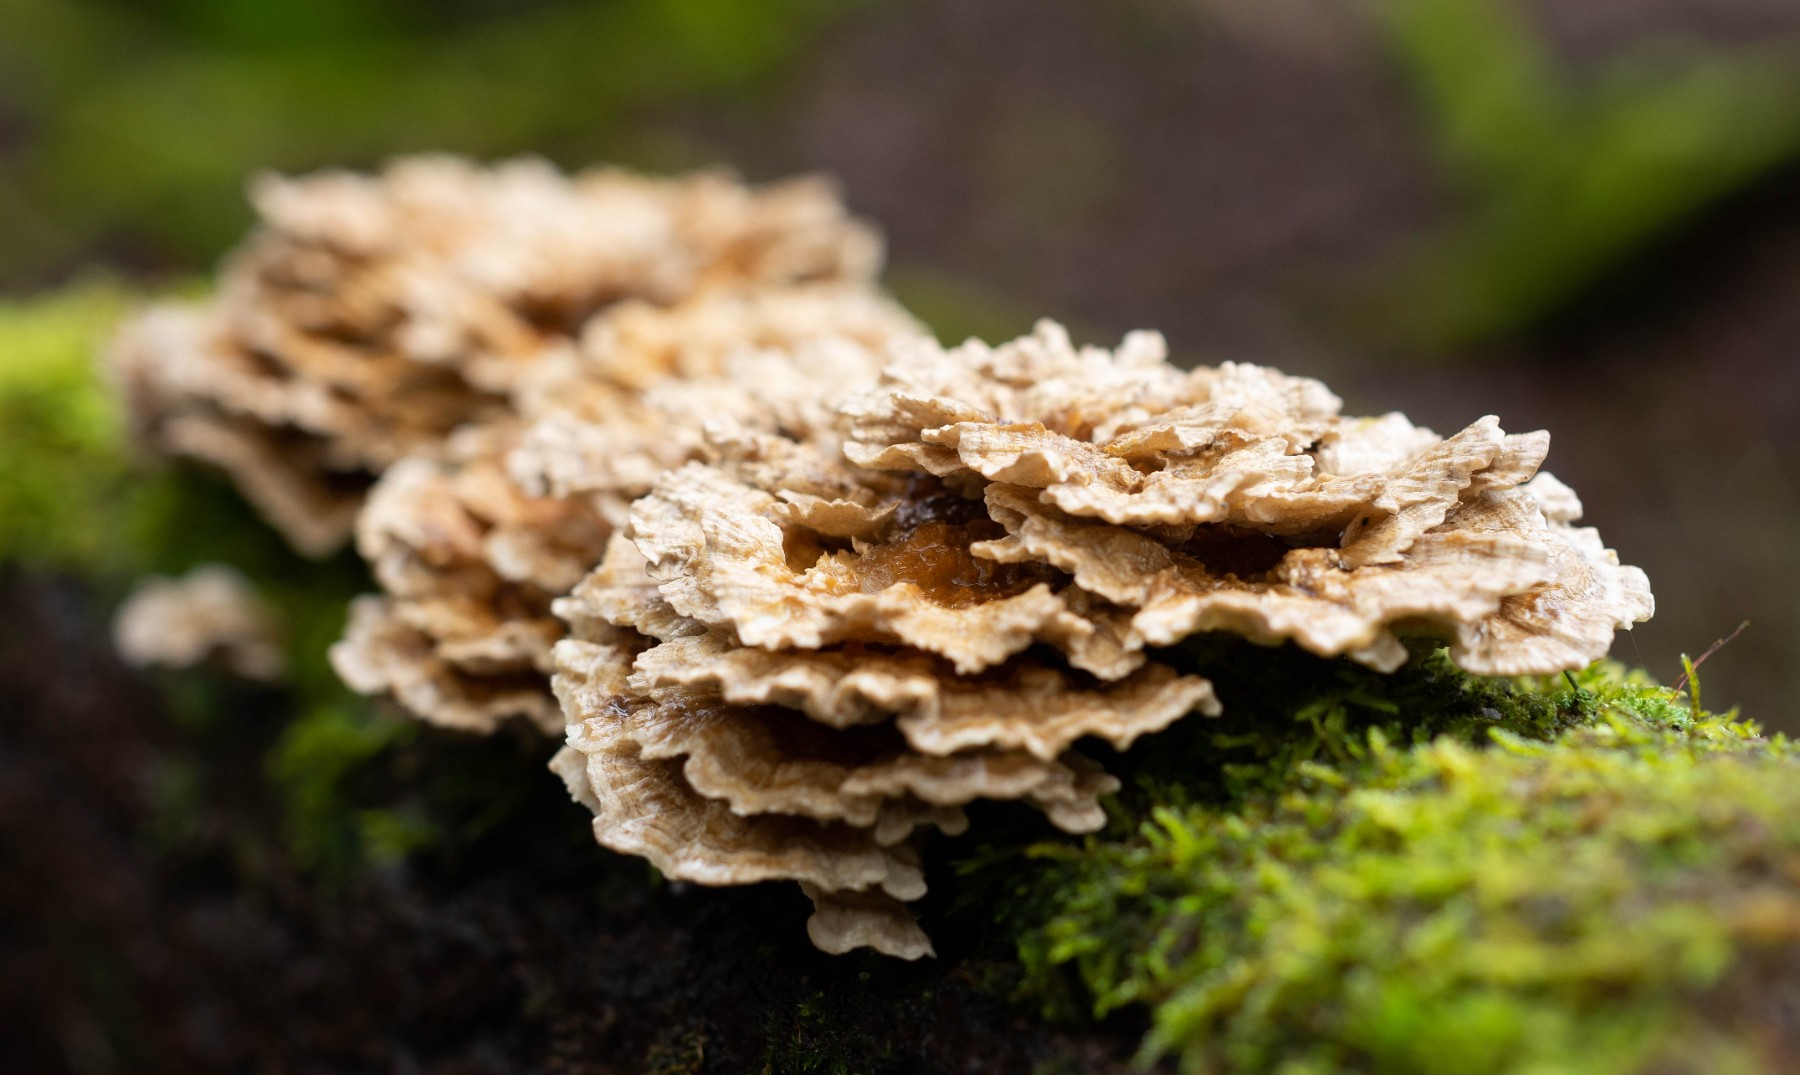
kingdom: Fungi
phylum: Basidiomycota
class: Agaricomycetes
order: Polyporales
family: Polyporaceae
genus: Trametes
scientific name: Trametes versicolor
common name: broget læderporesvamp
